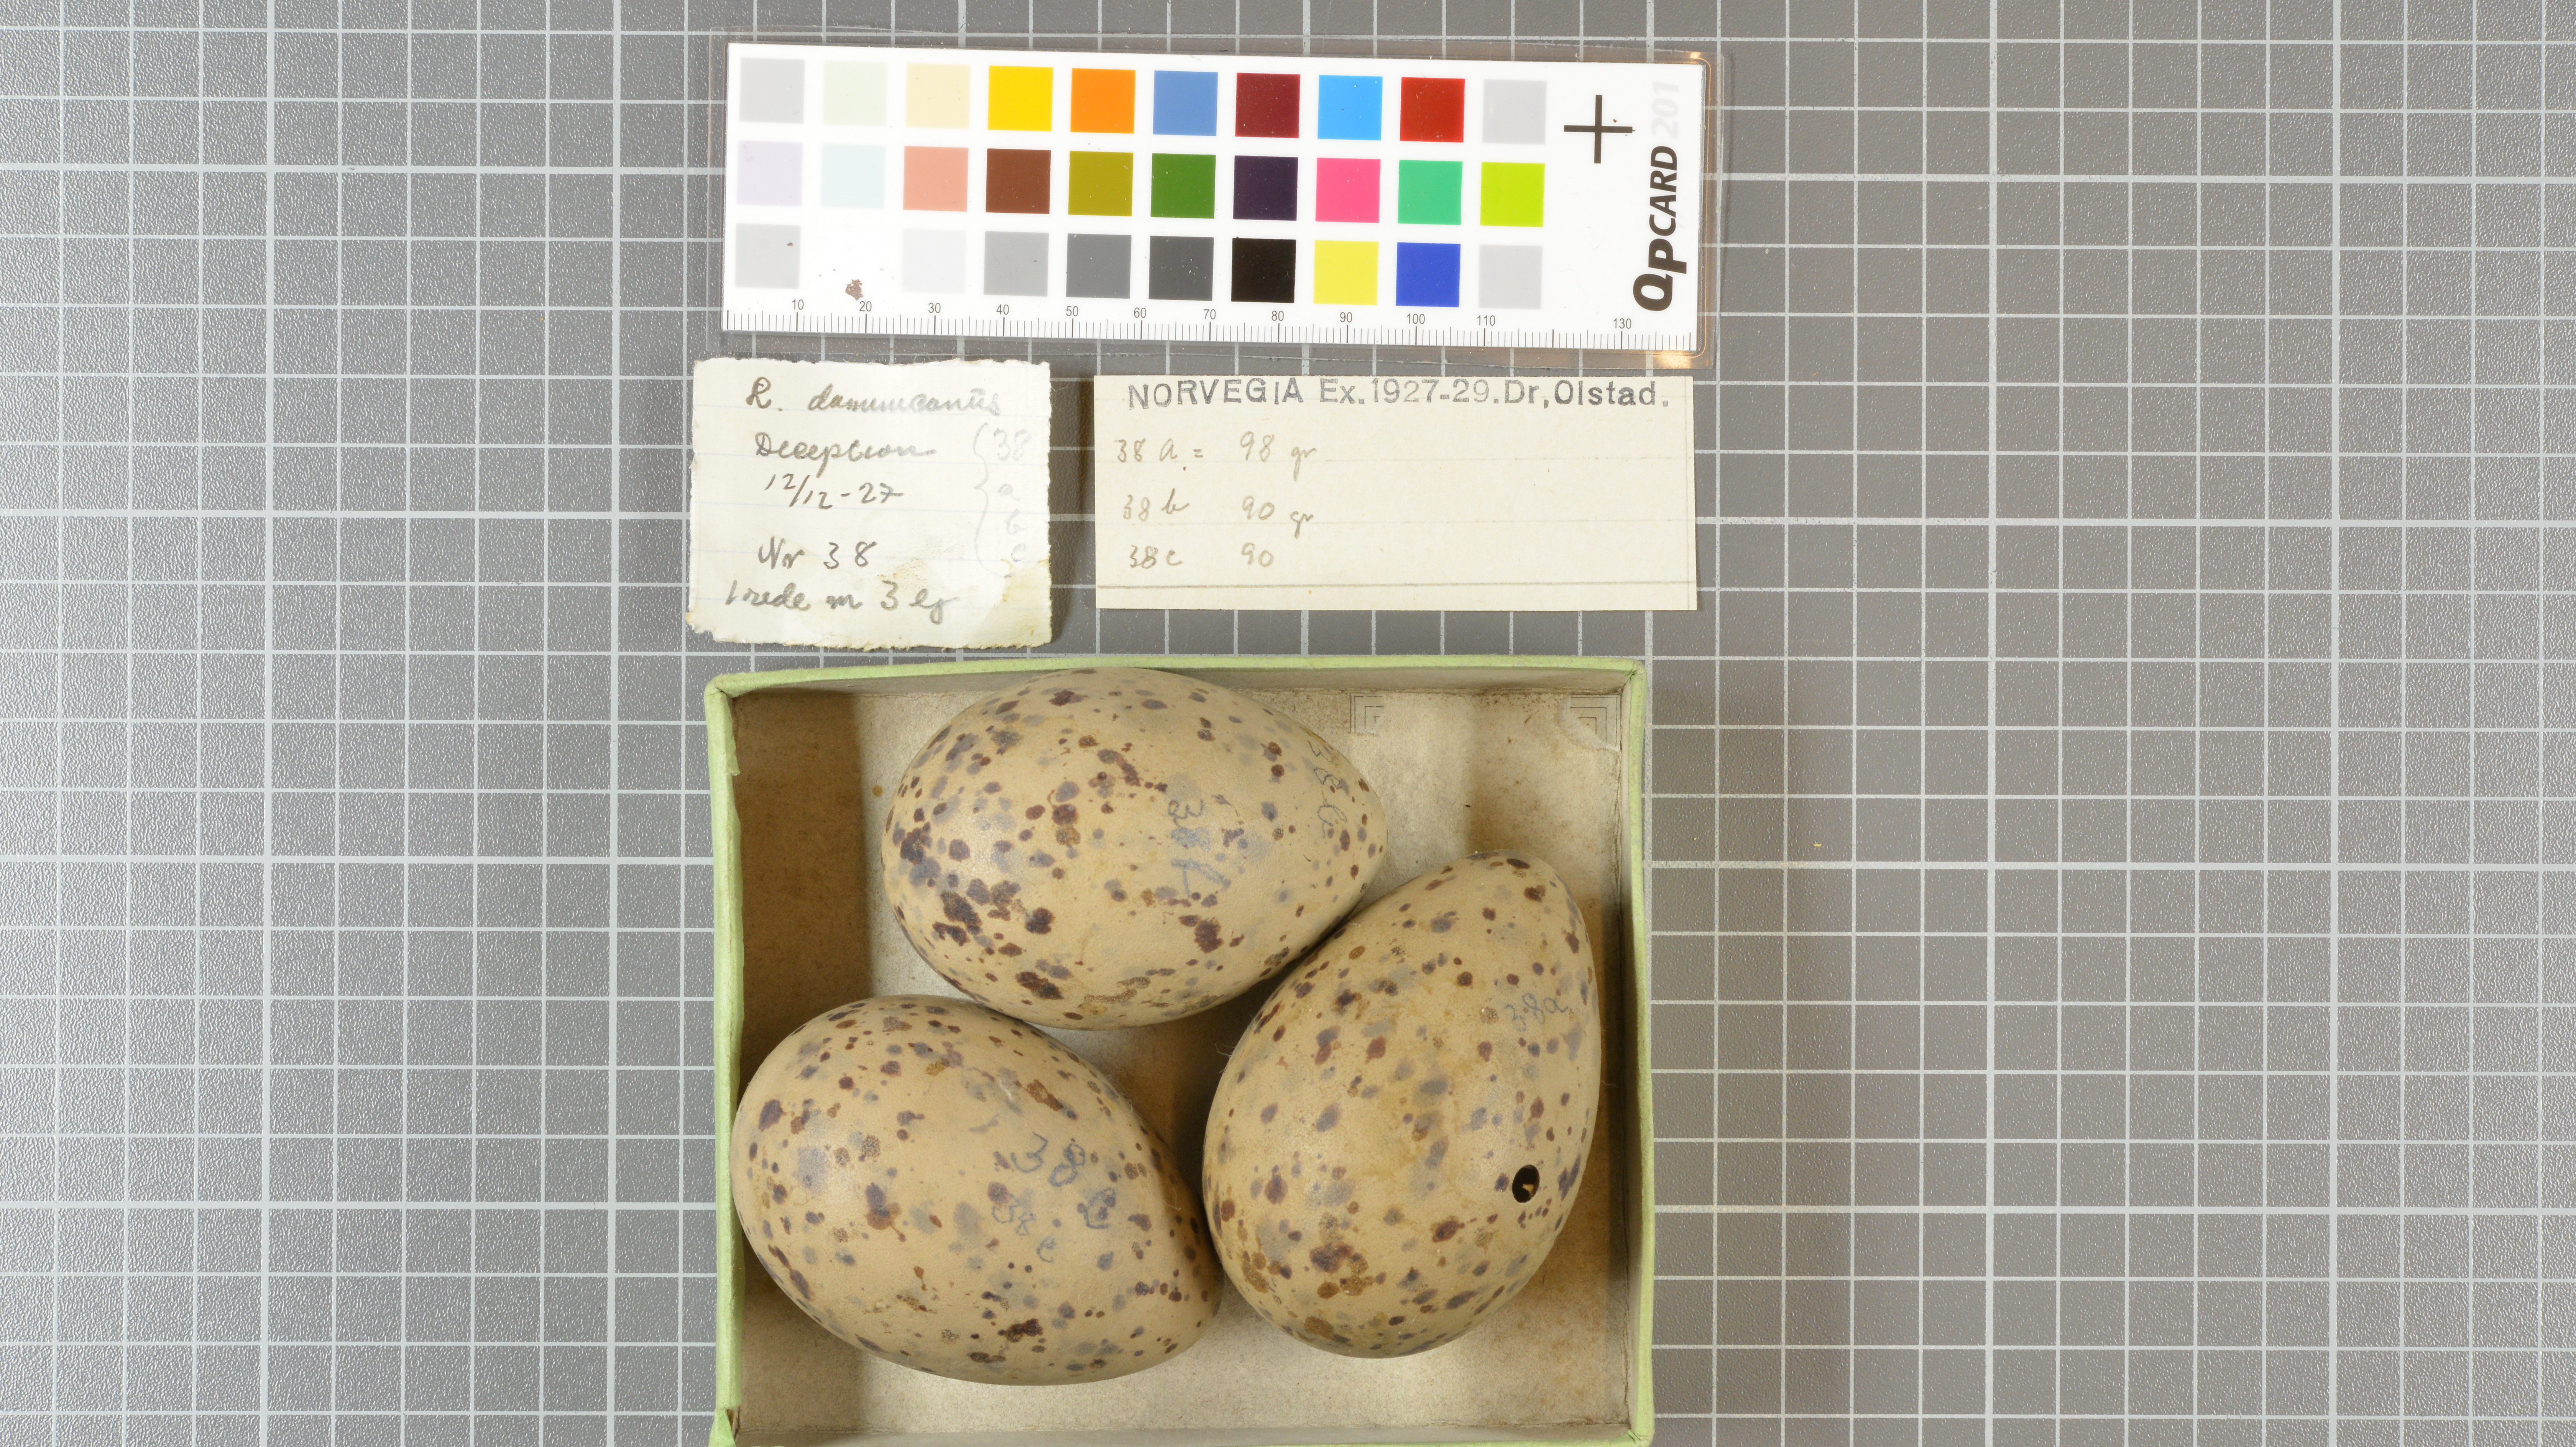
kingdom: Animalia
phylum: Chordata
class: Aves
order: Charadriiformes
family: Laridae
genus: Larus
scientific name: Larus dominicanus
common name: Kelp gull
